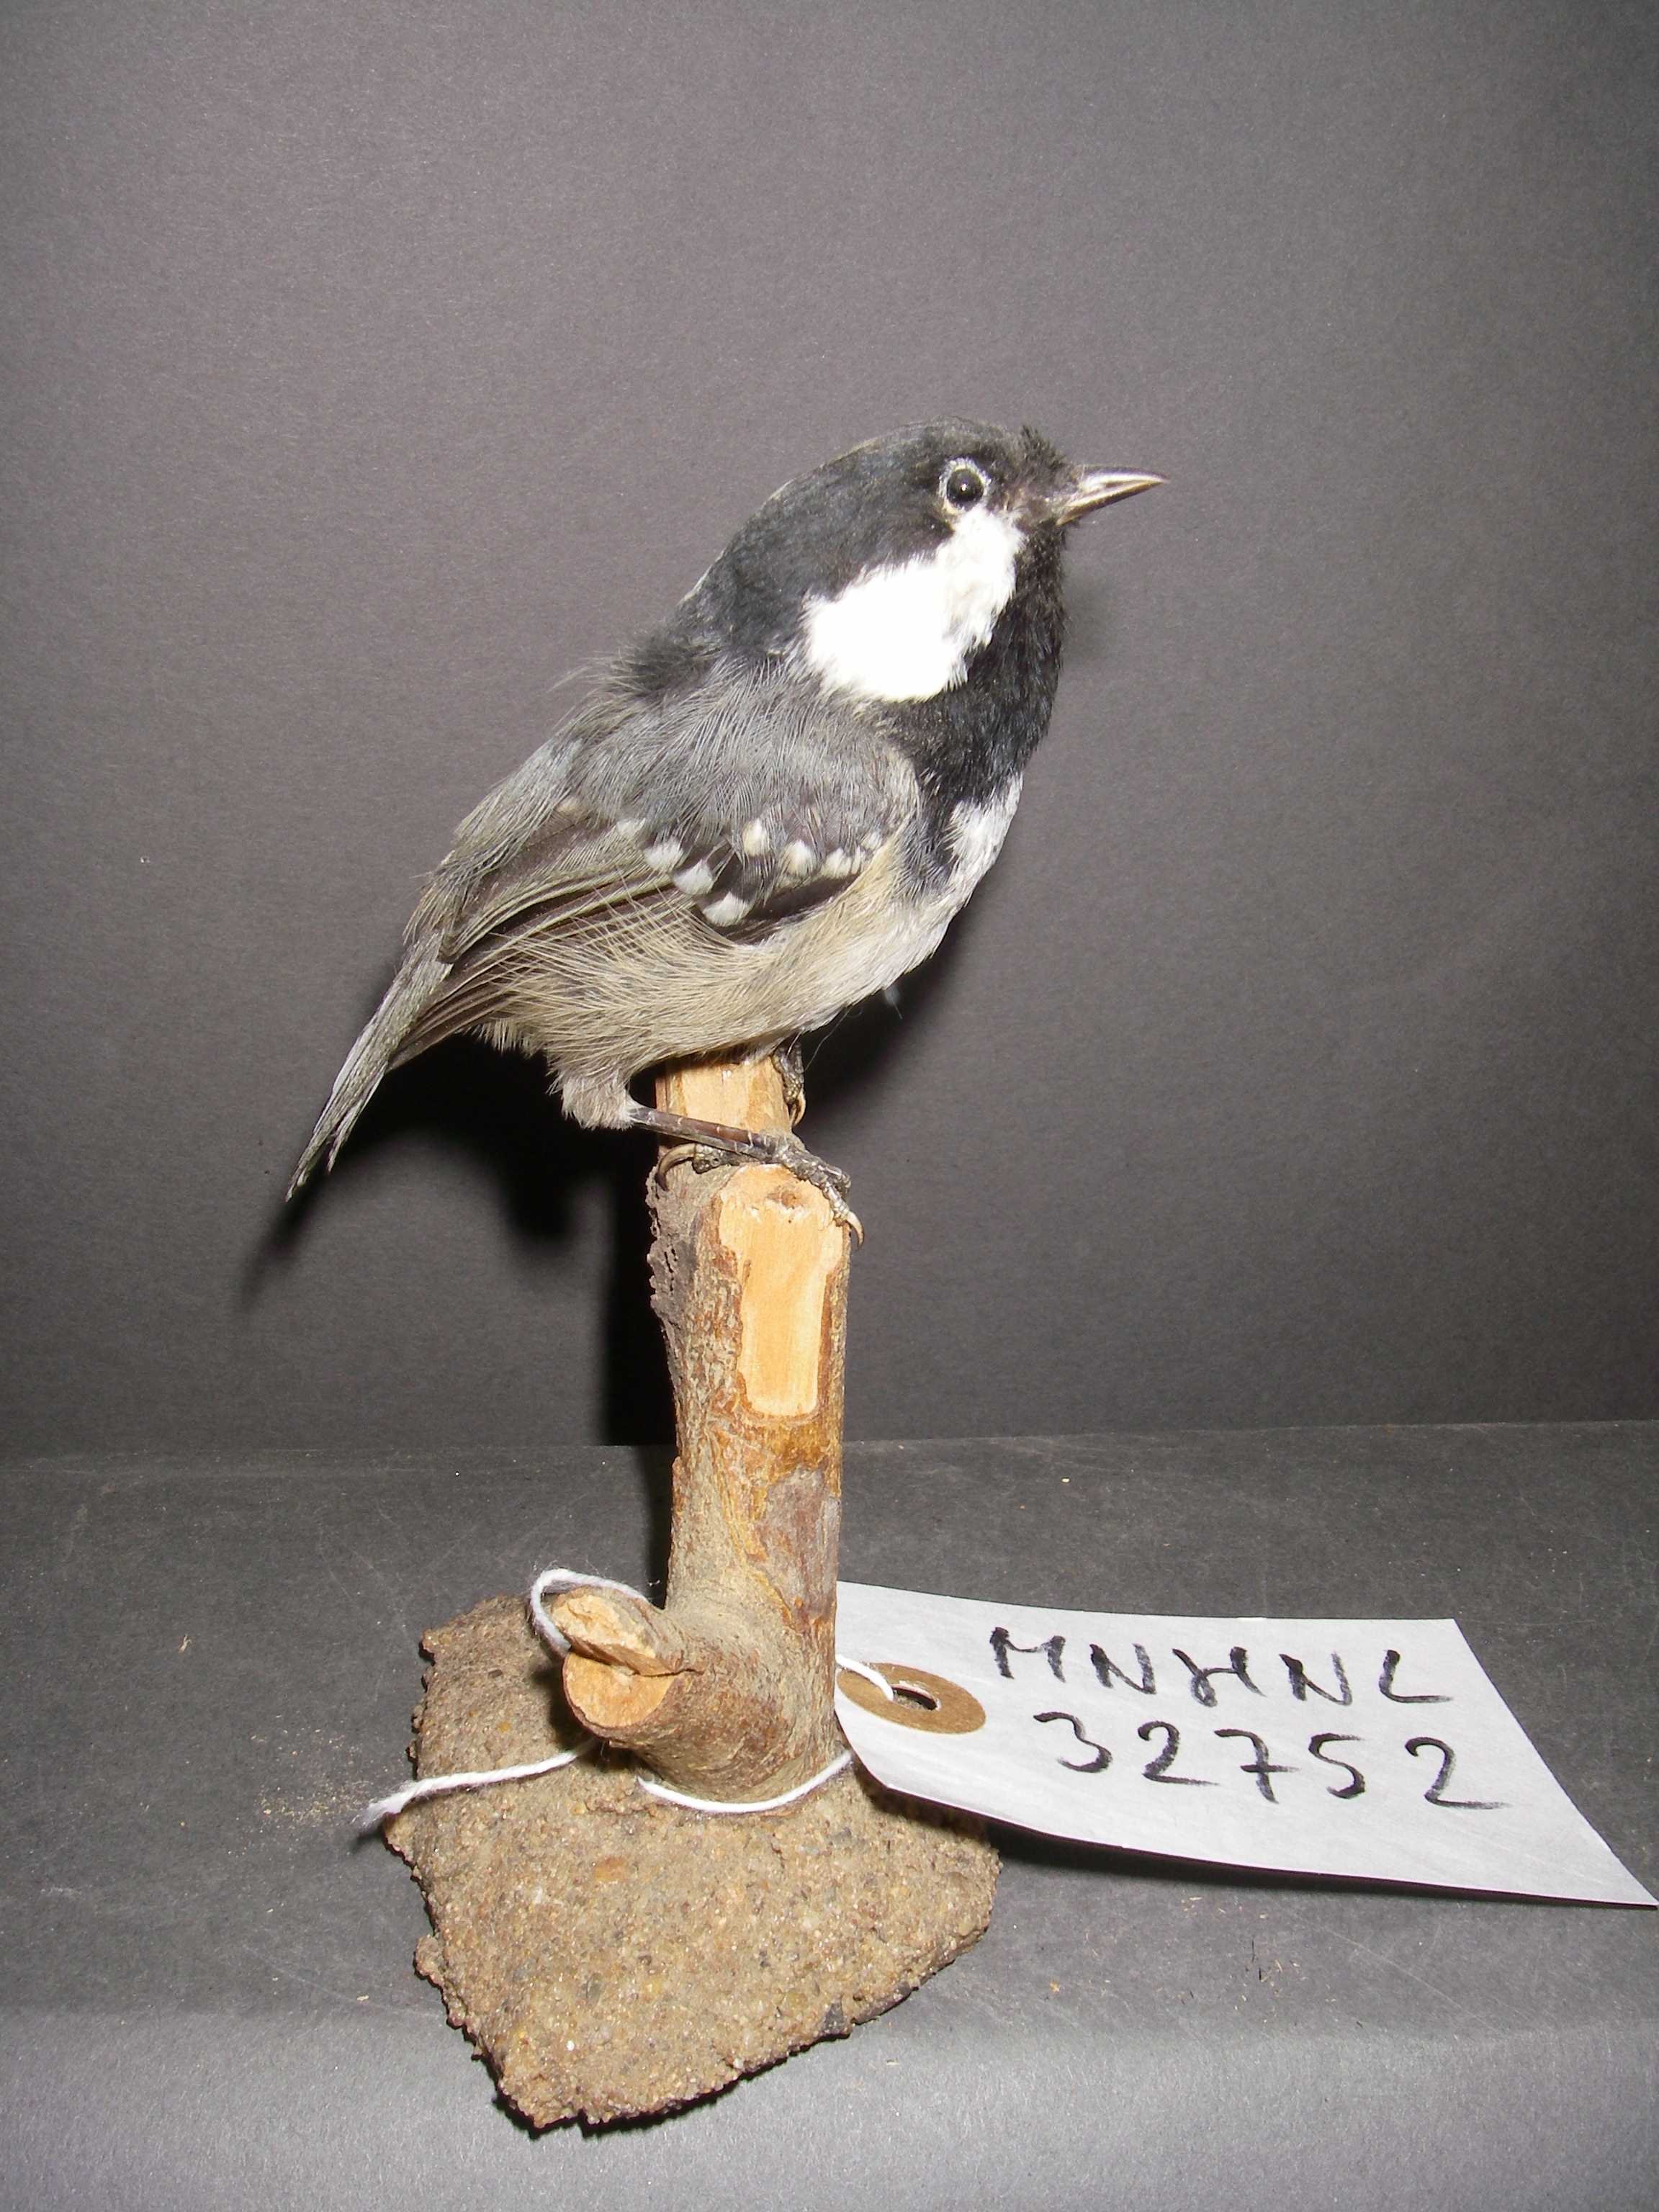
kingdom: Animalia
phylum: Chordata
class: Aves
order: Passeriformes
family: Paridae
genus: Periparus
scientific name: Periparus ater
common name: Coal tit
